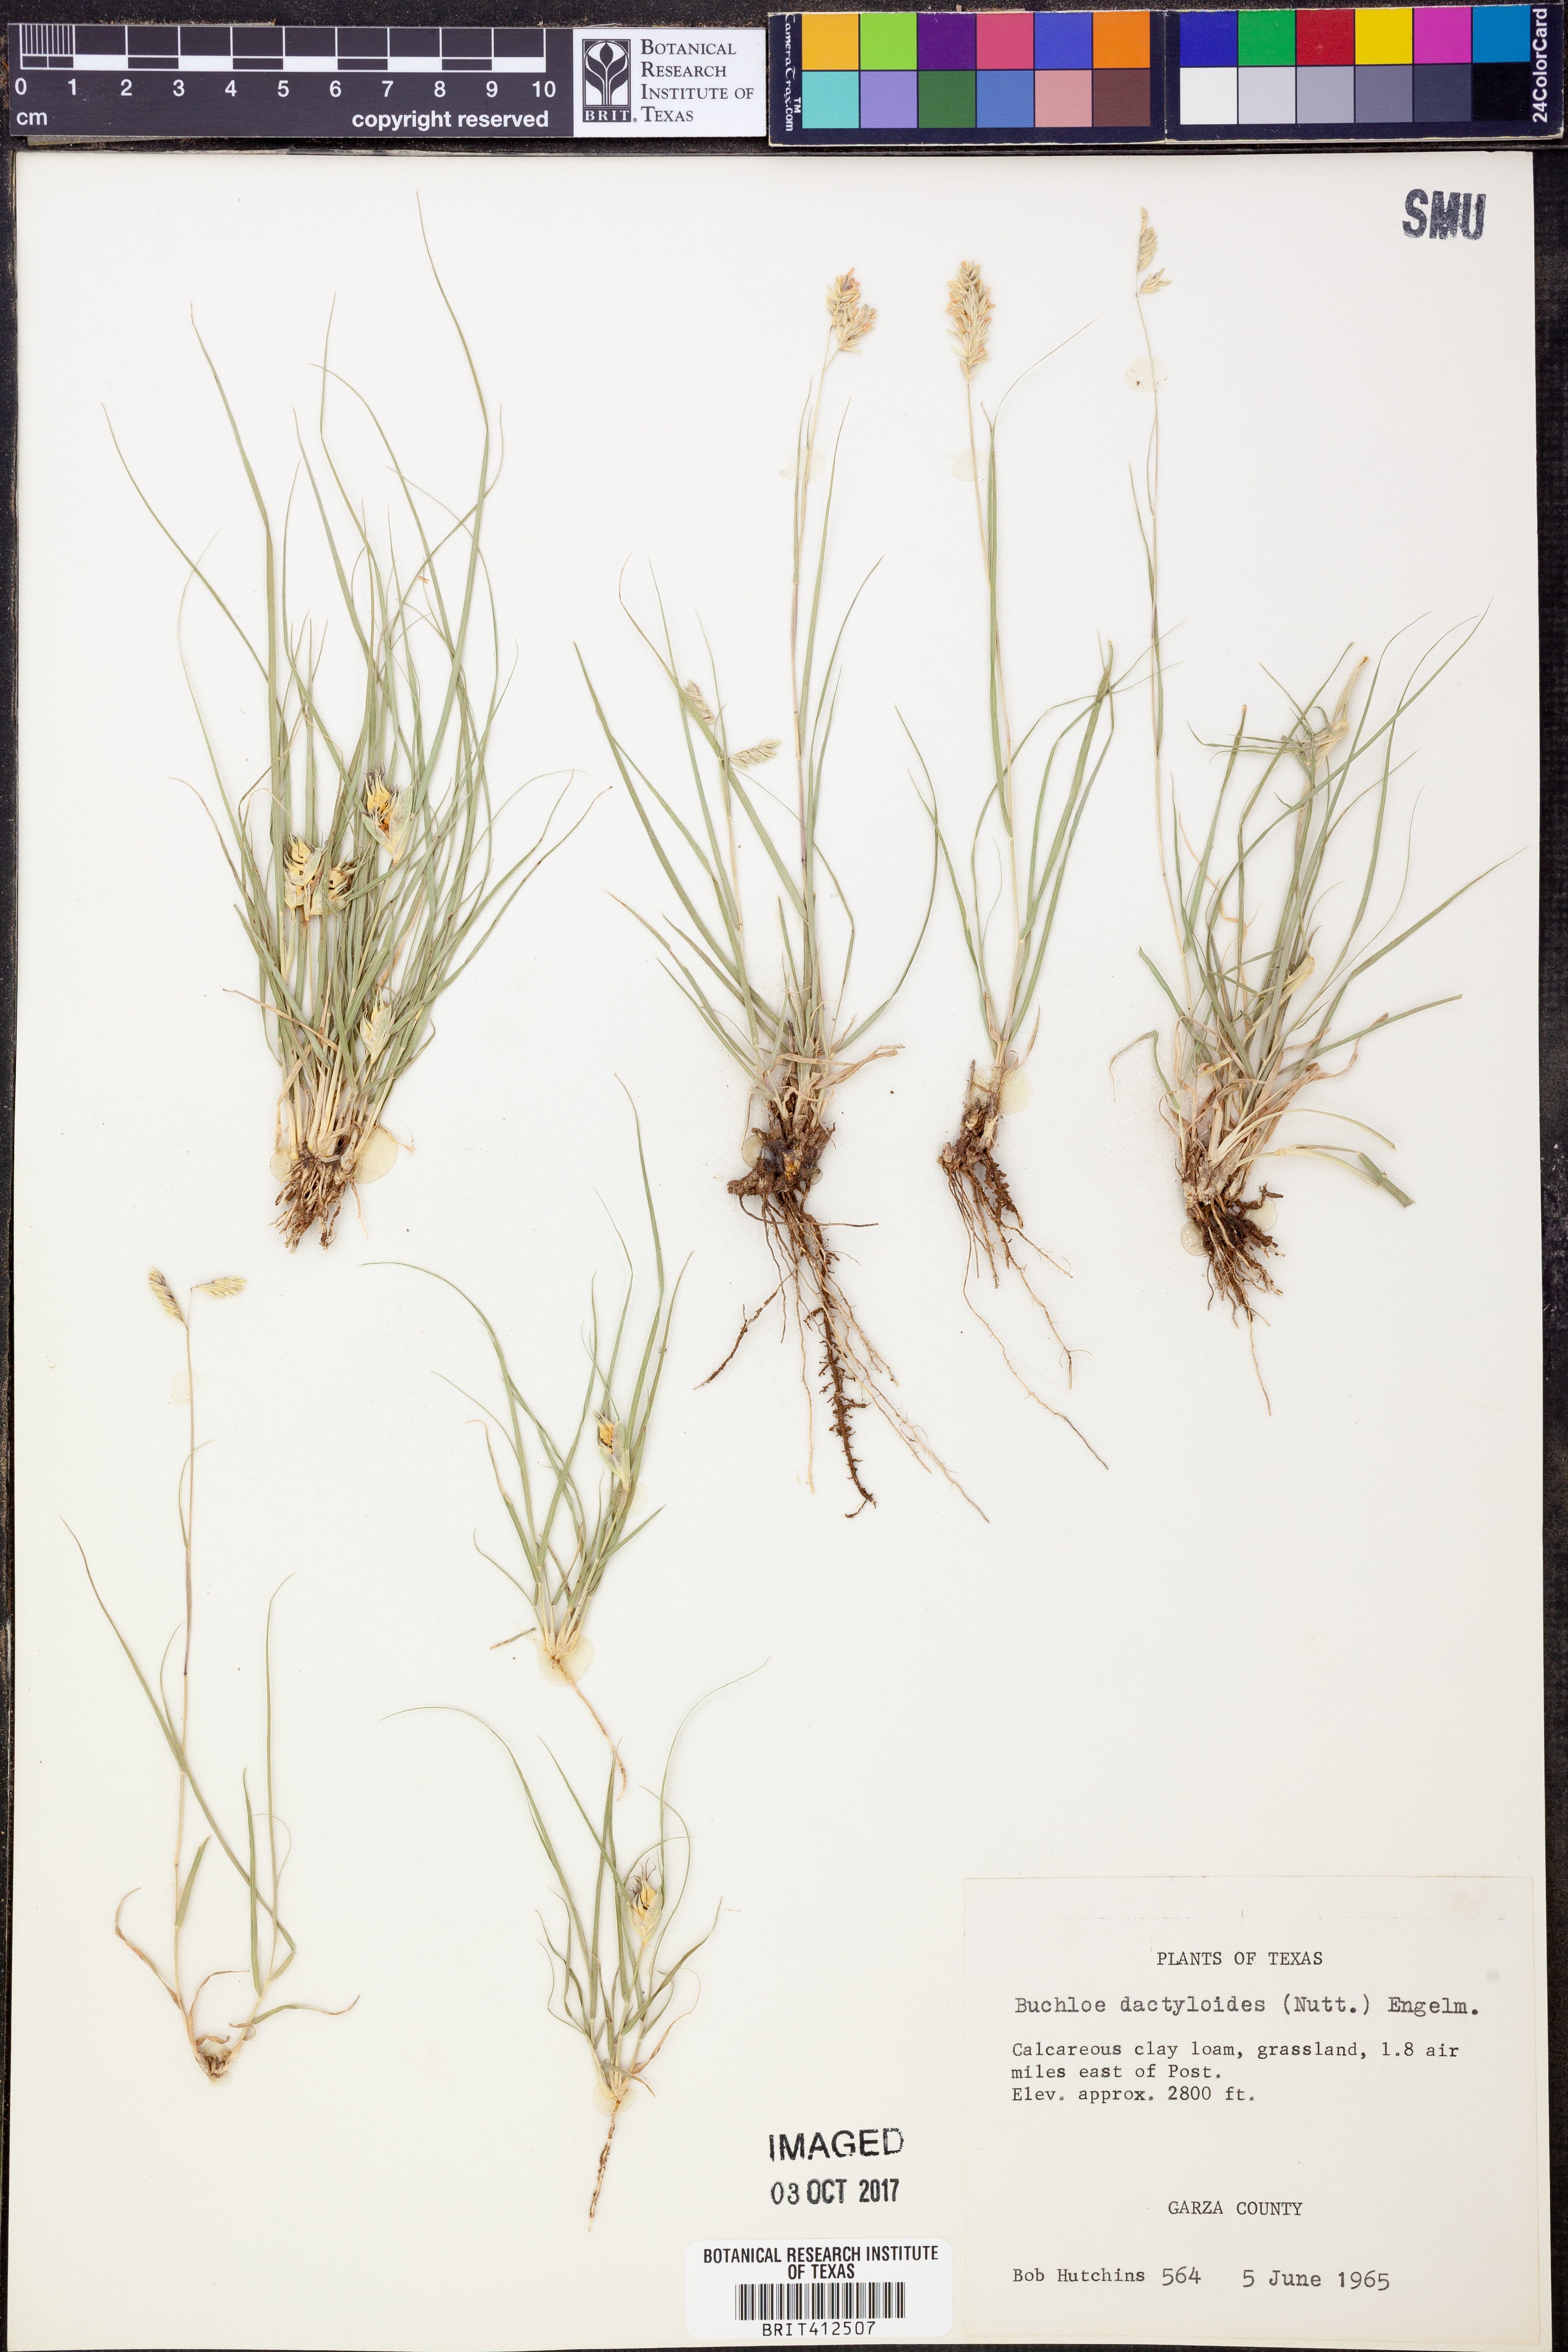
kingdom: Plantae
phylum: Tracheophyta
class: Liliopsida
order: Poales
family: Poaceae
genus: Bouteloua
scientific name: Bouteloua dactyloides
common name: Buffalo grass
